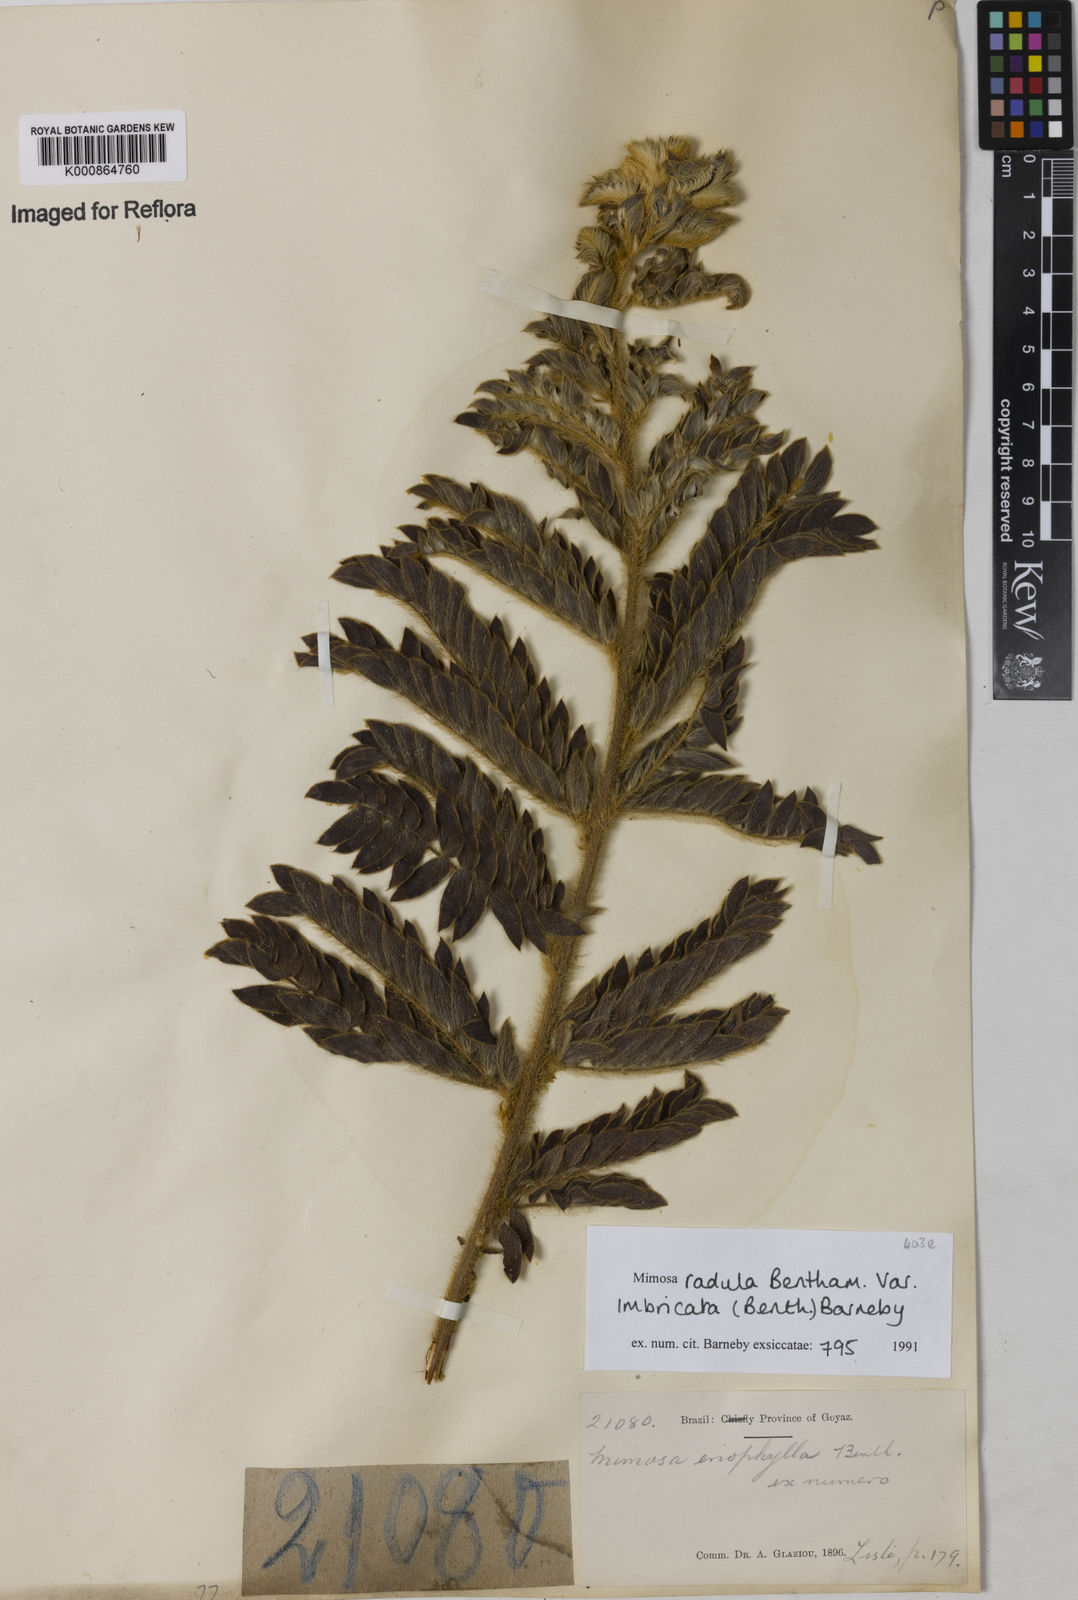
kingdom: Plantae
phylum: Tracheophyta
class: Magnoliopsida
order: Fabales
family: Fabaceae
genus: Mimosa
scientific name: Mimosa radula
